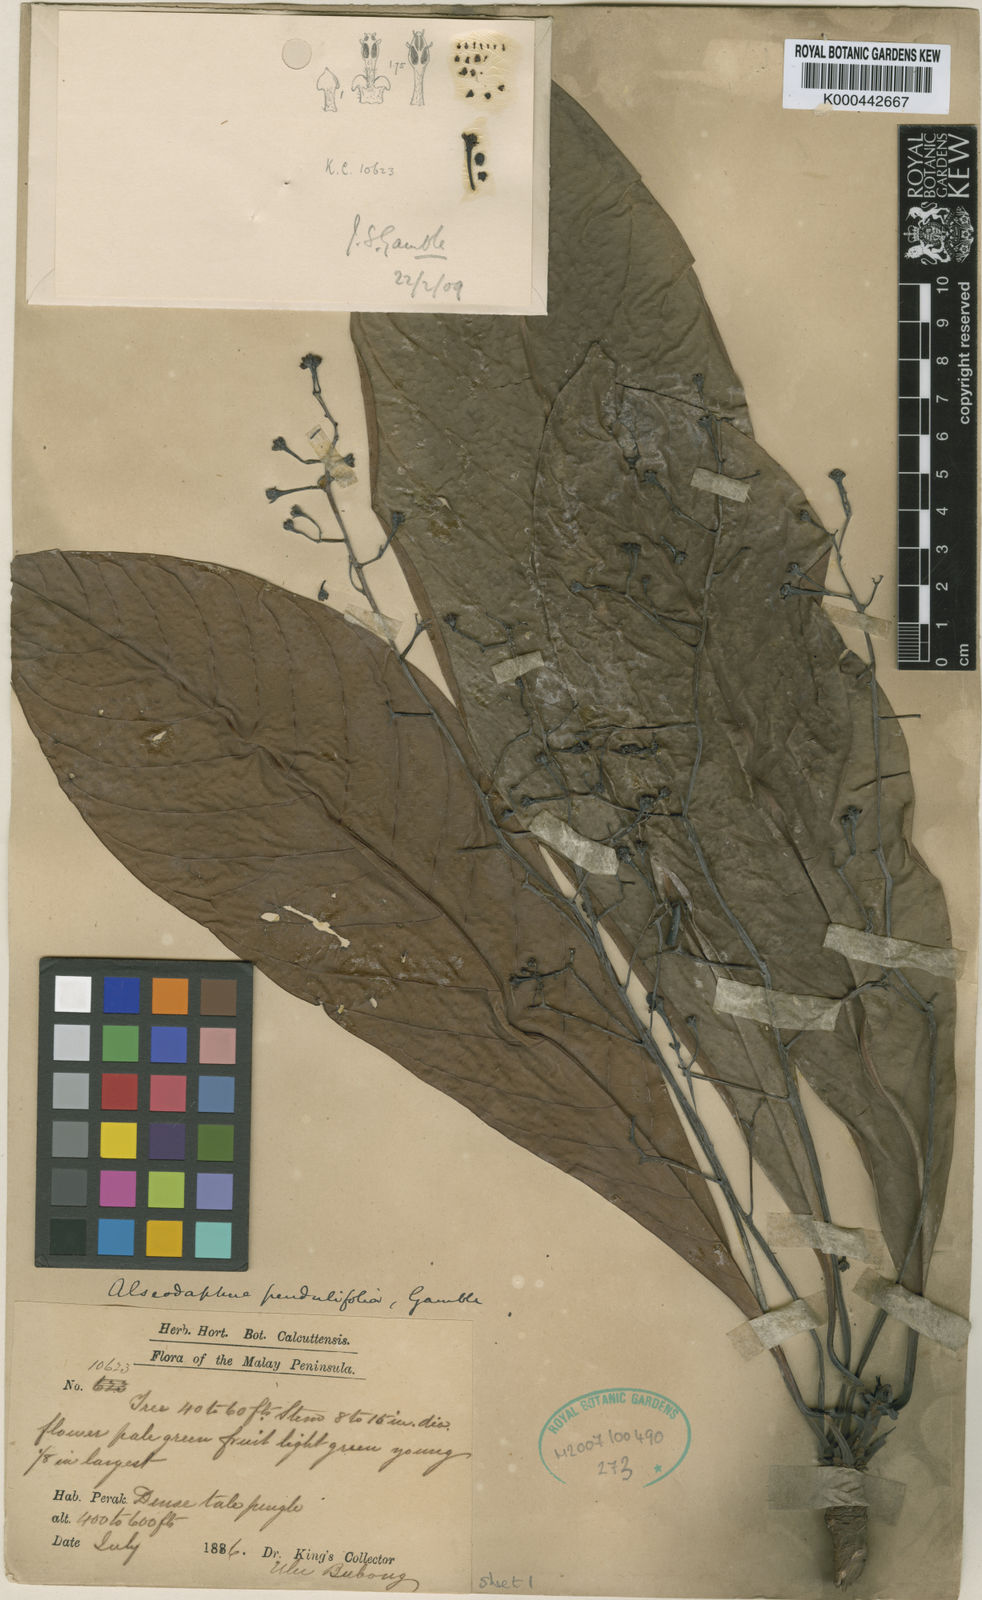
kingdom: Plantae
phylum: Tracheophyta
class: Magnoliopsida
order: Laurales
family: Lauraceae
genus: Alseodaphne
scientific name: Alseodaphne pendulifolia
